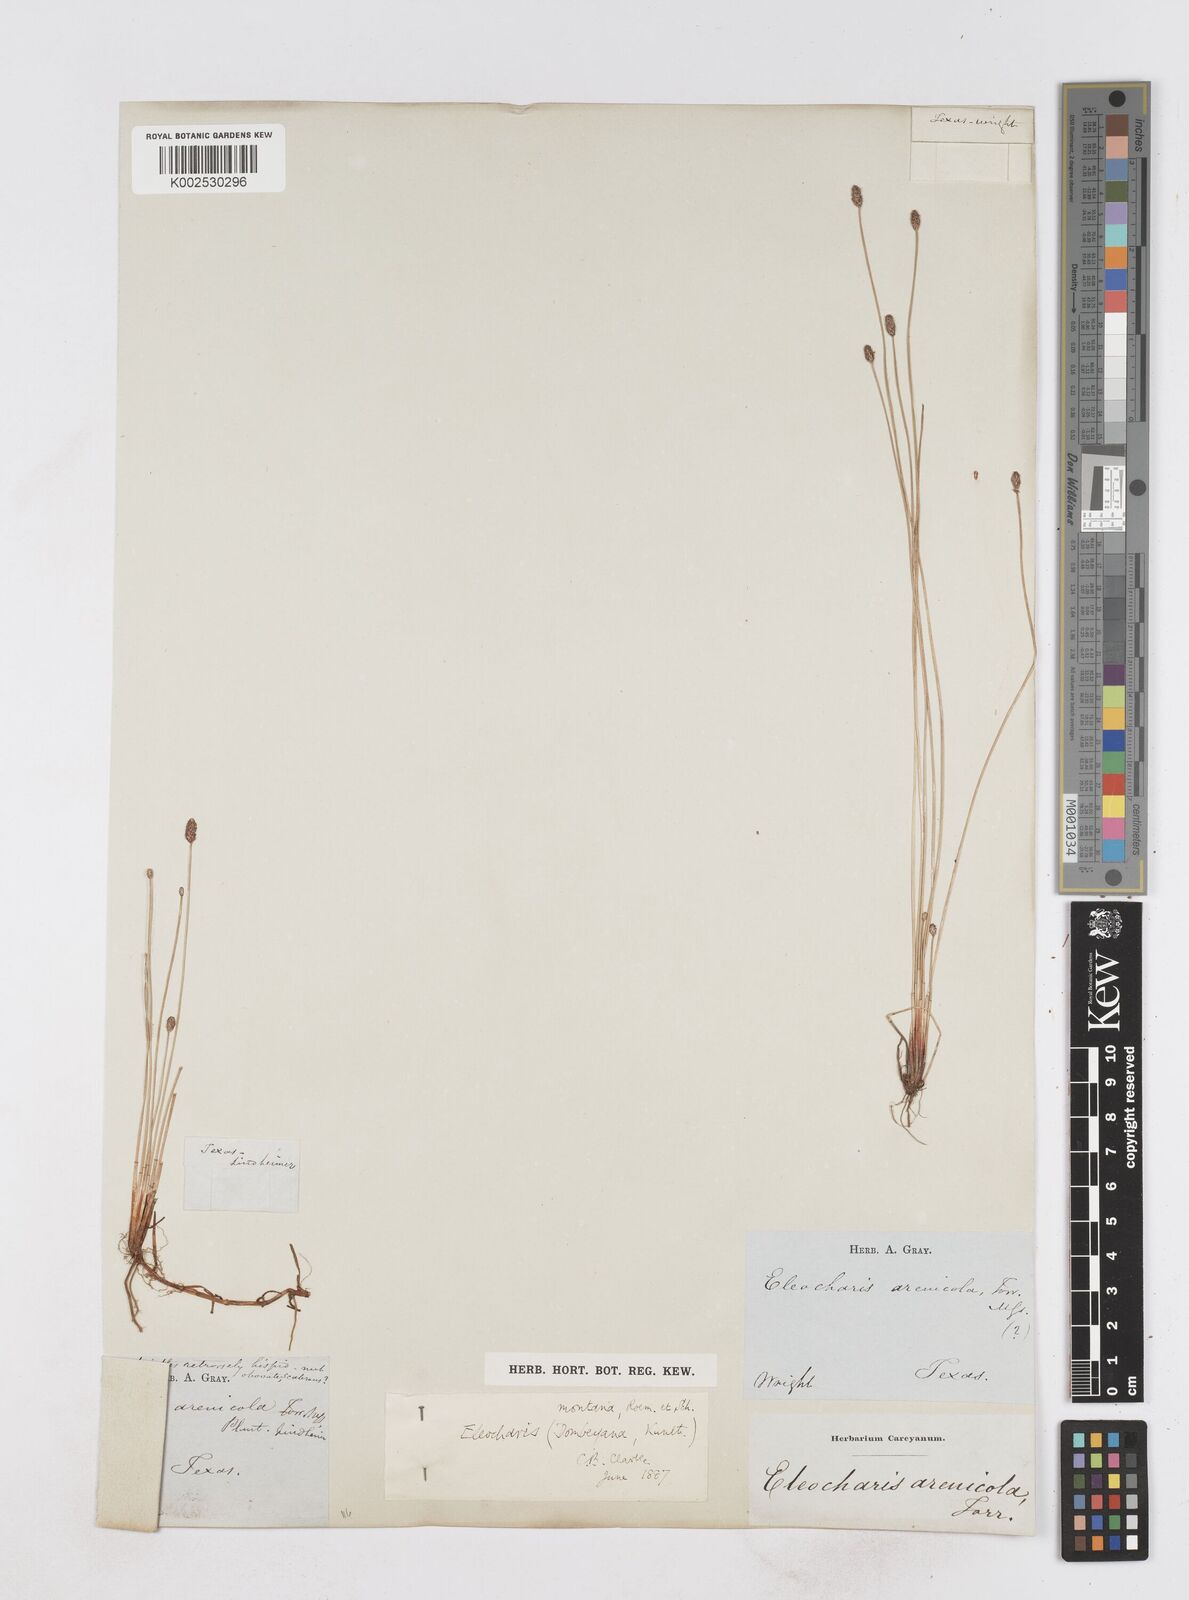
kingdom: Plantae
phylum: Tracheophyta
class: Liliopsida
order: Poales
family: Cyperaceae
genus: Eleocharis
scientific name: Eleocharis montana
